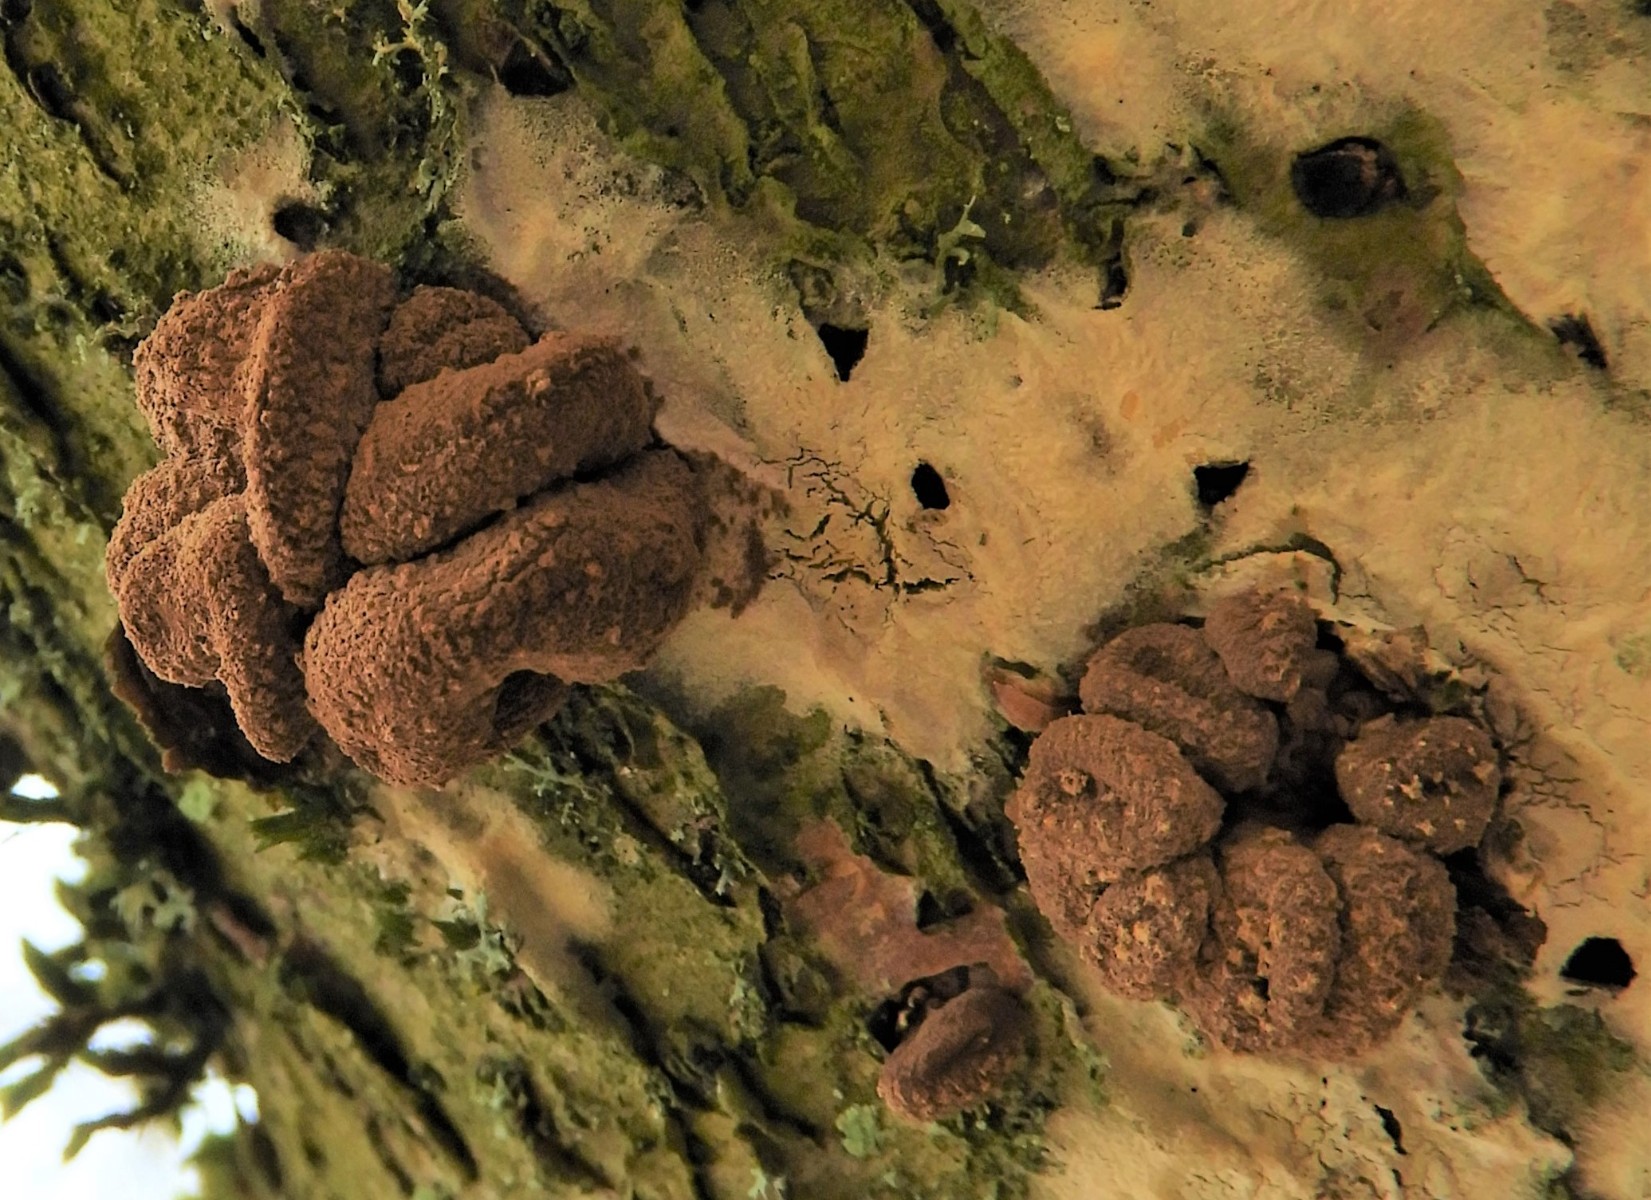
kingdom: Fungi
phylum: Ascomycota
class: Leotiomycetes
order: Helotiales
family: Cenangiaceae
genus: Encoelia
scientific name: Encoelia furfuracea
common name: hassel-læderskive
